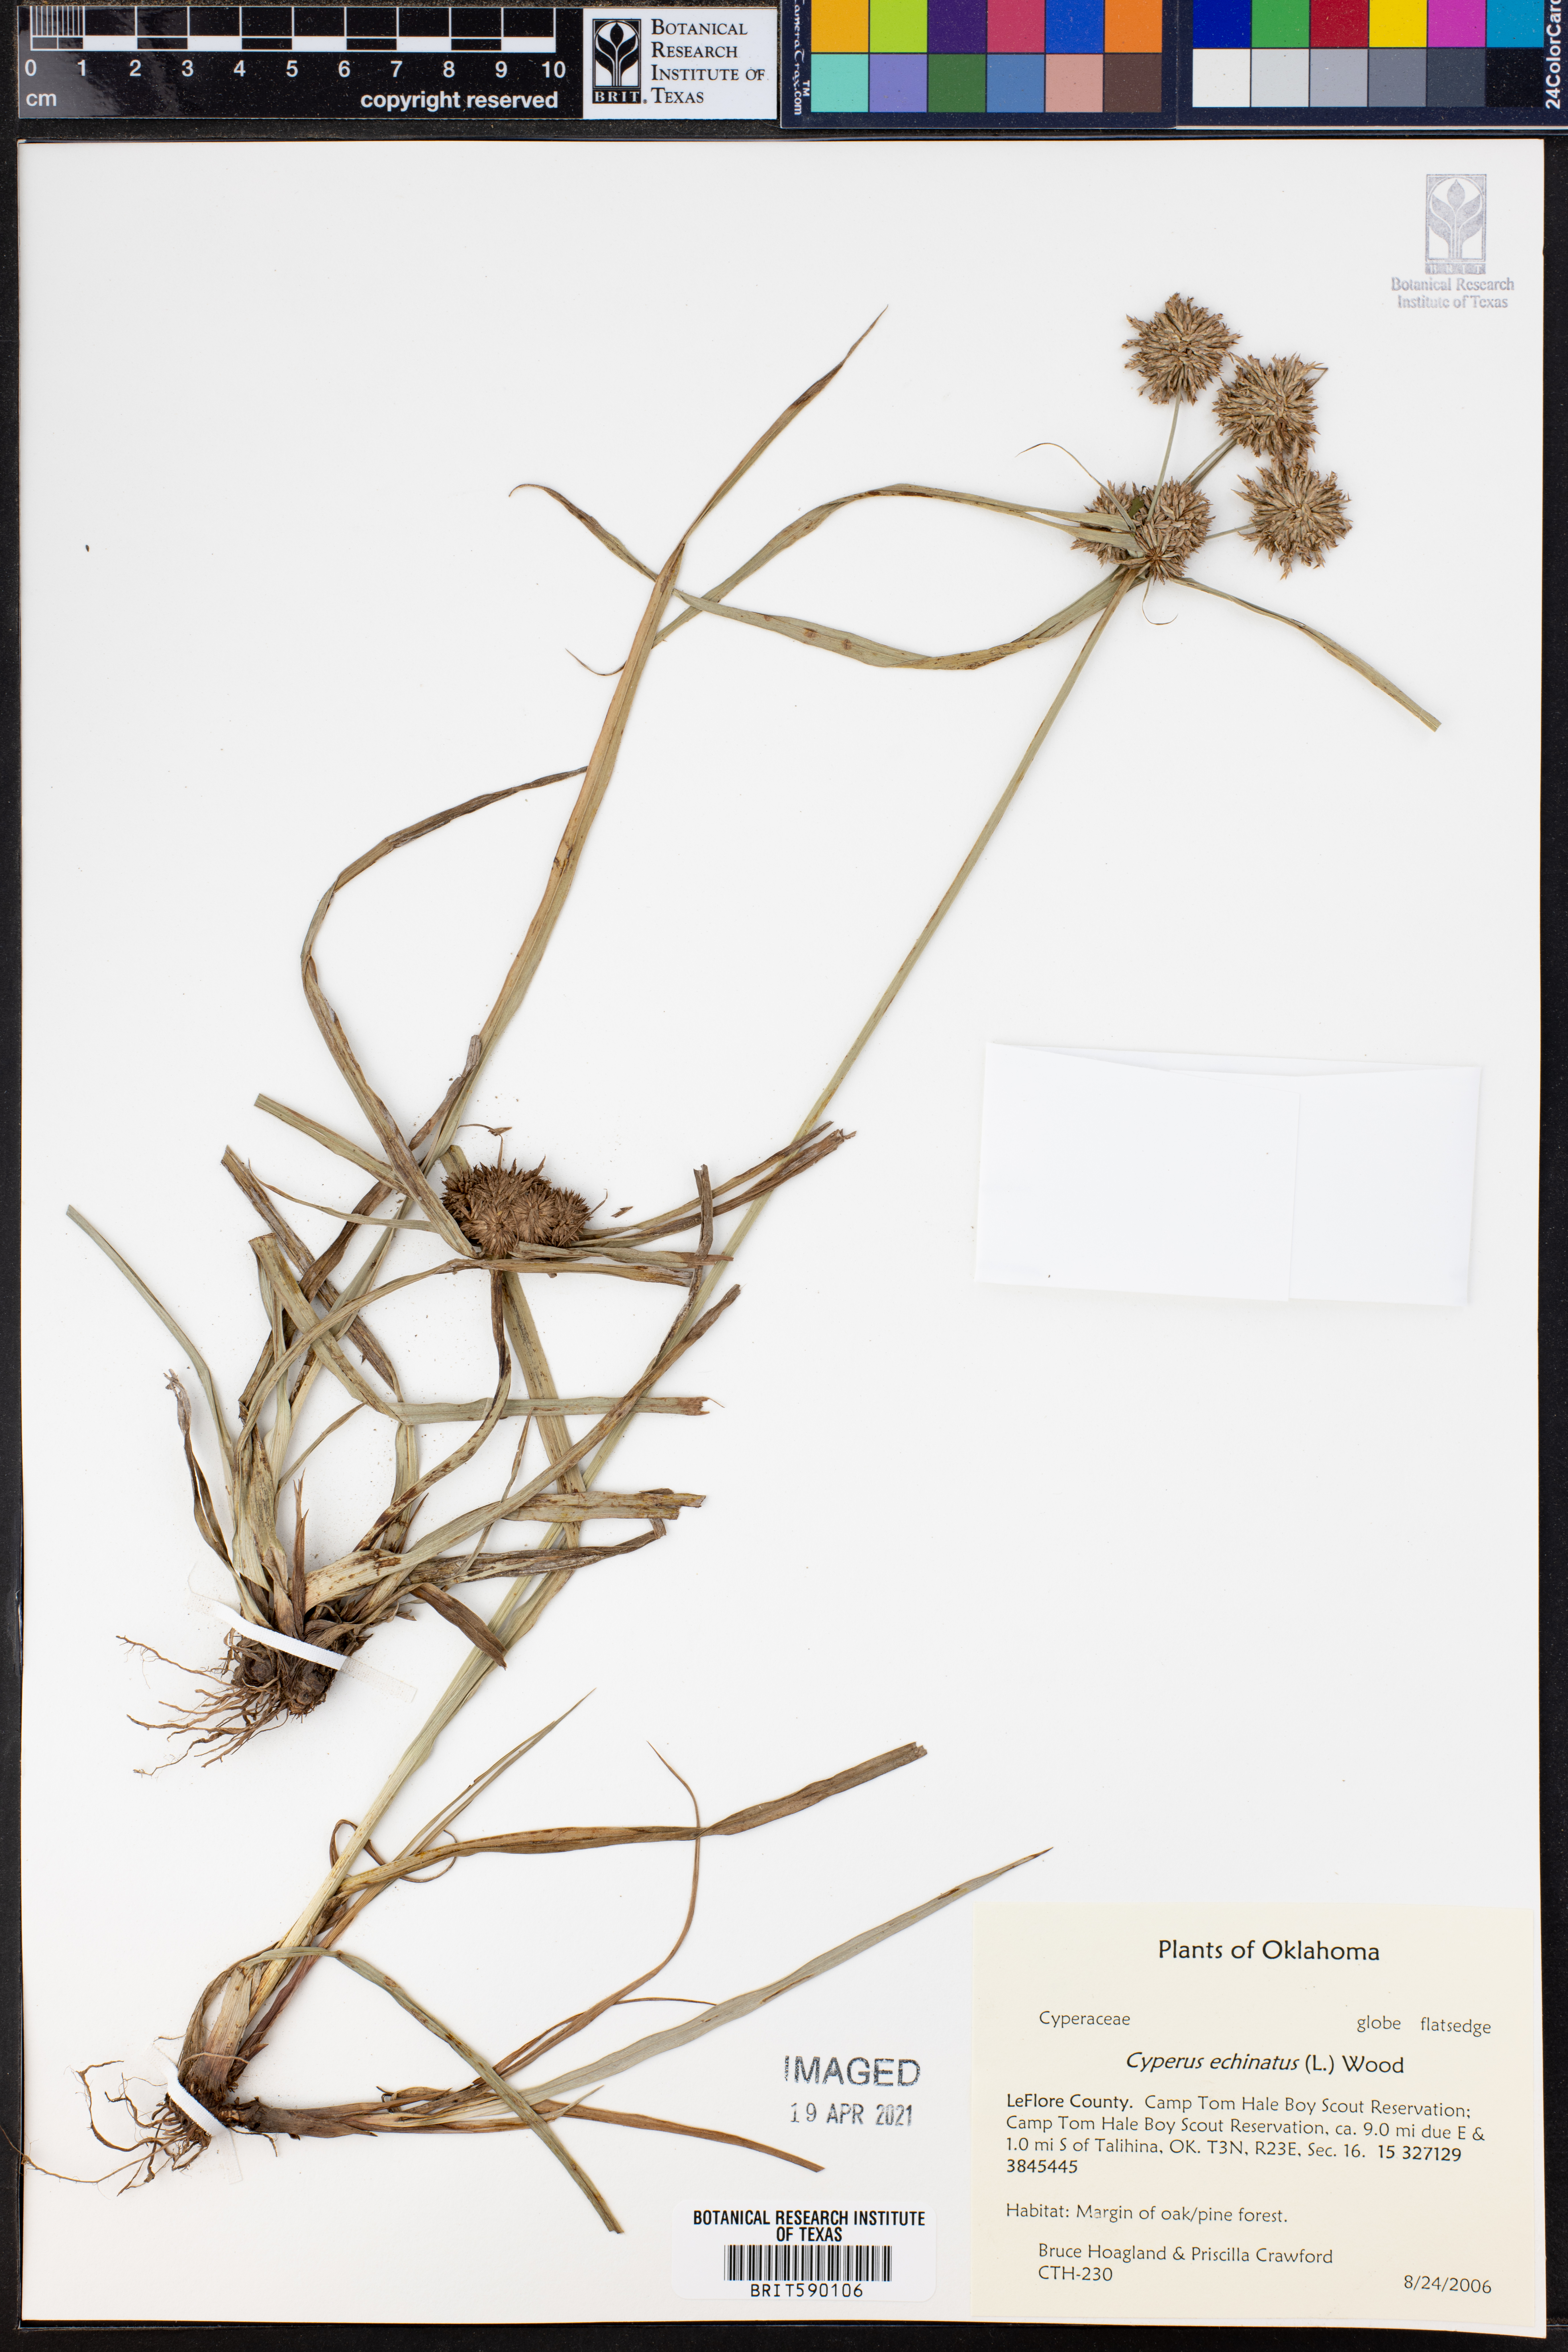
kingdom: Plantae
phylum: Tracheophyta
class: Liliopsida
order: Poales
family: Cyperaceae
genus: Cyperus
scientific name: Cyperus echinatus
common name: Teasel sedge
